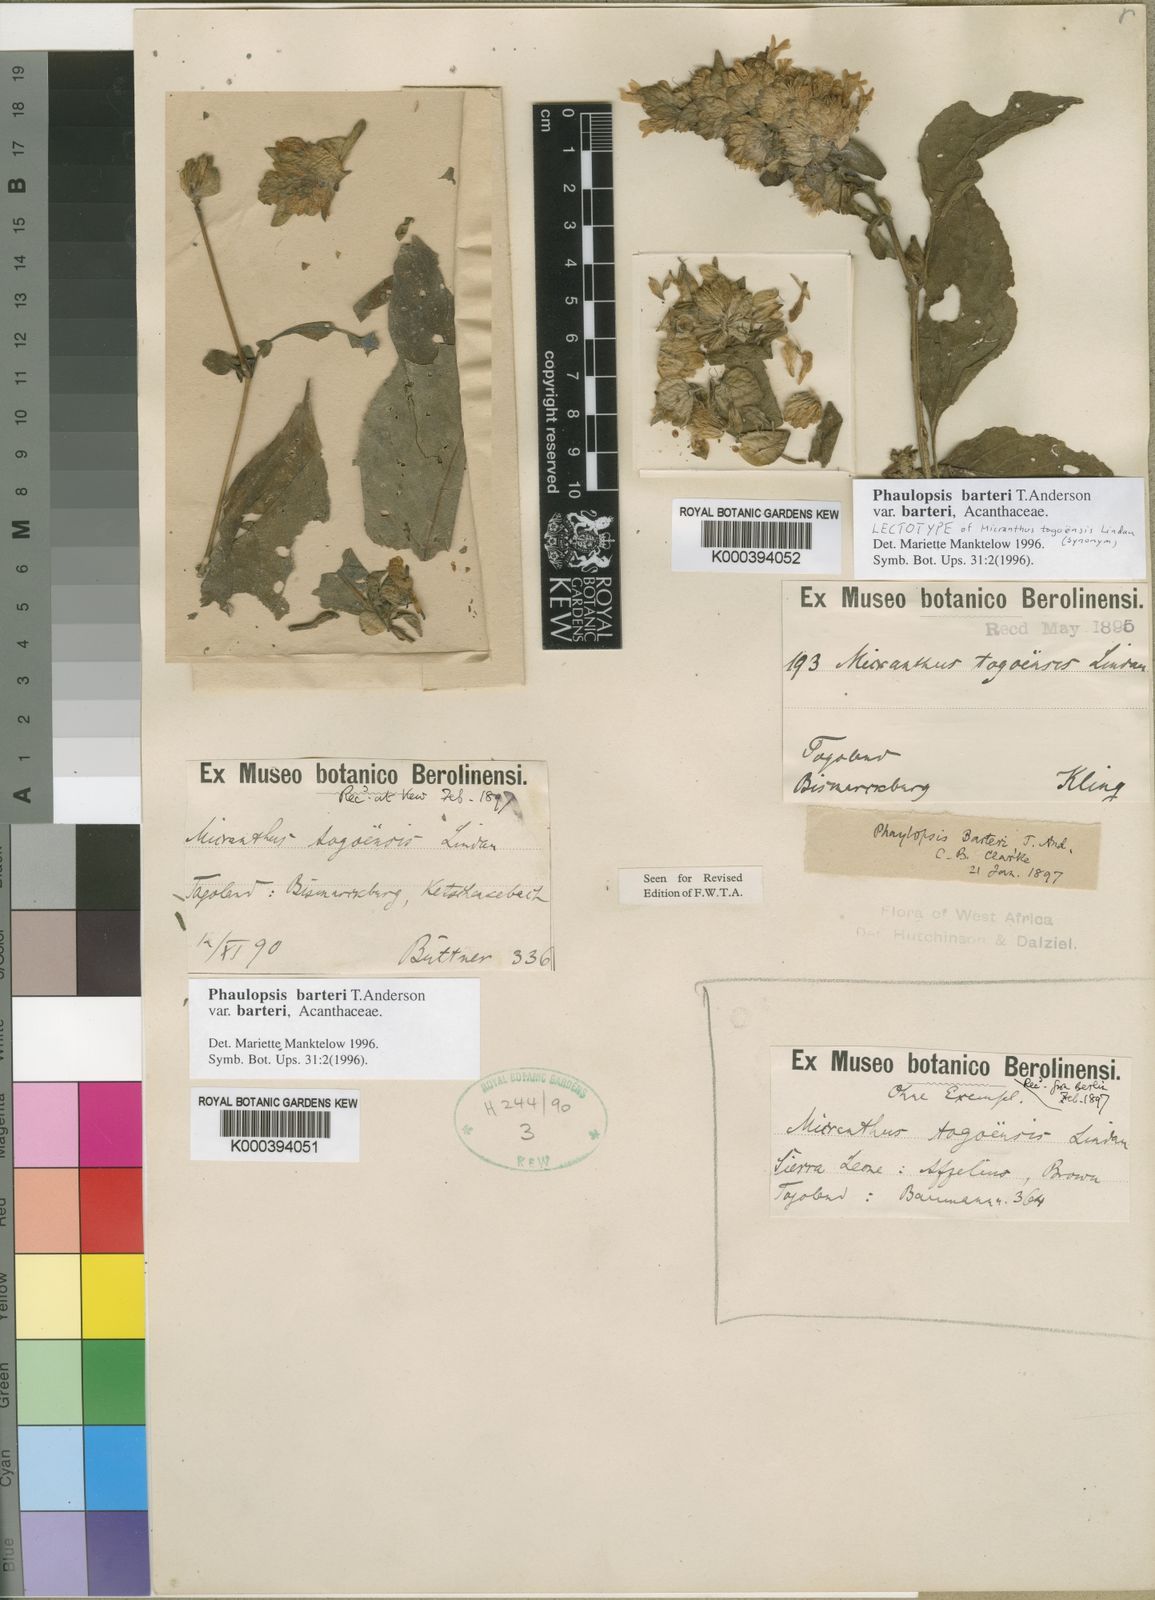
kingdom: Plantae
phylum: Tracheophyta
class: Magnoliopsida
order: Lamiales
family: Acanthaceae
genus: Phaulopsis
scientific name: Phaulopsis barteri
